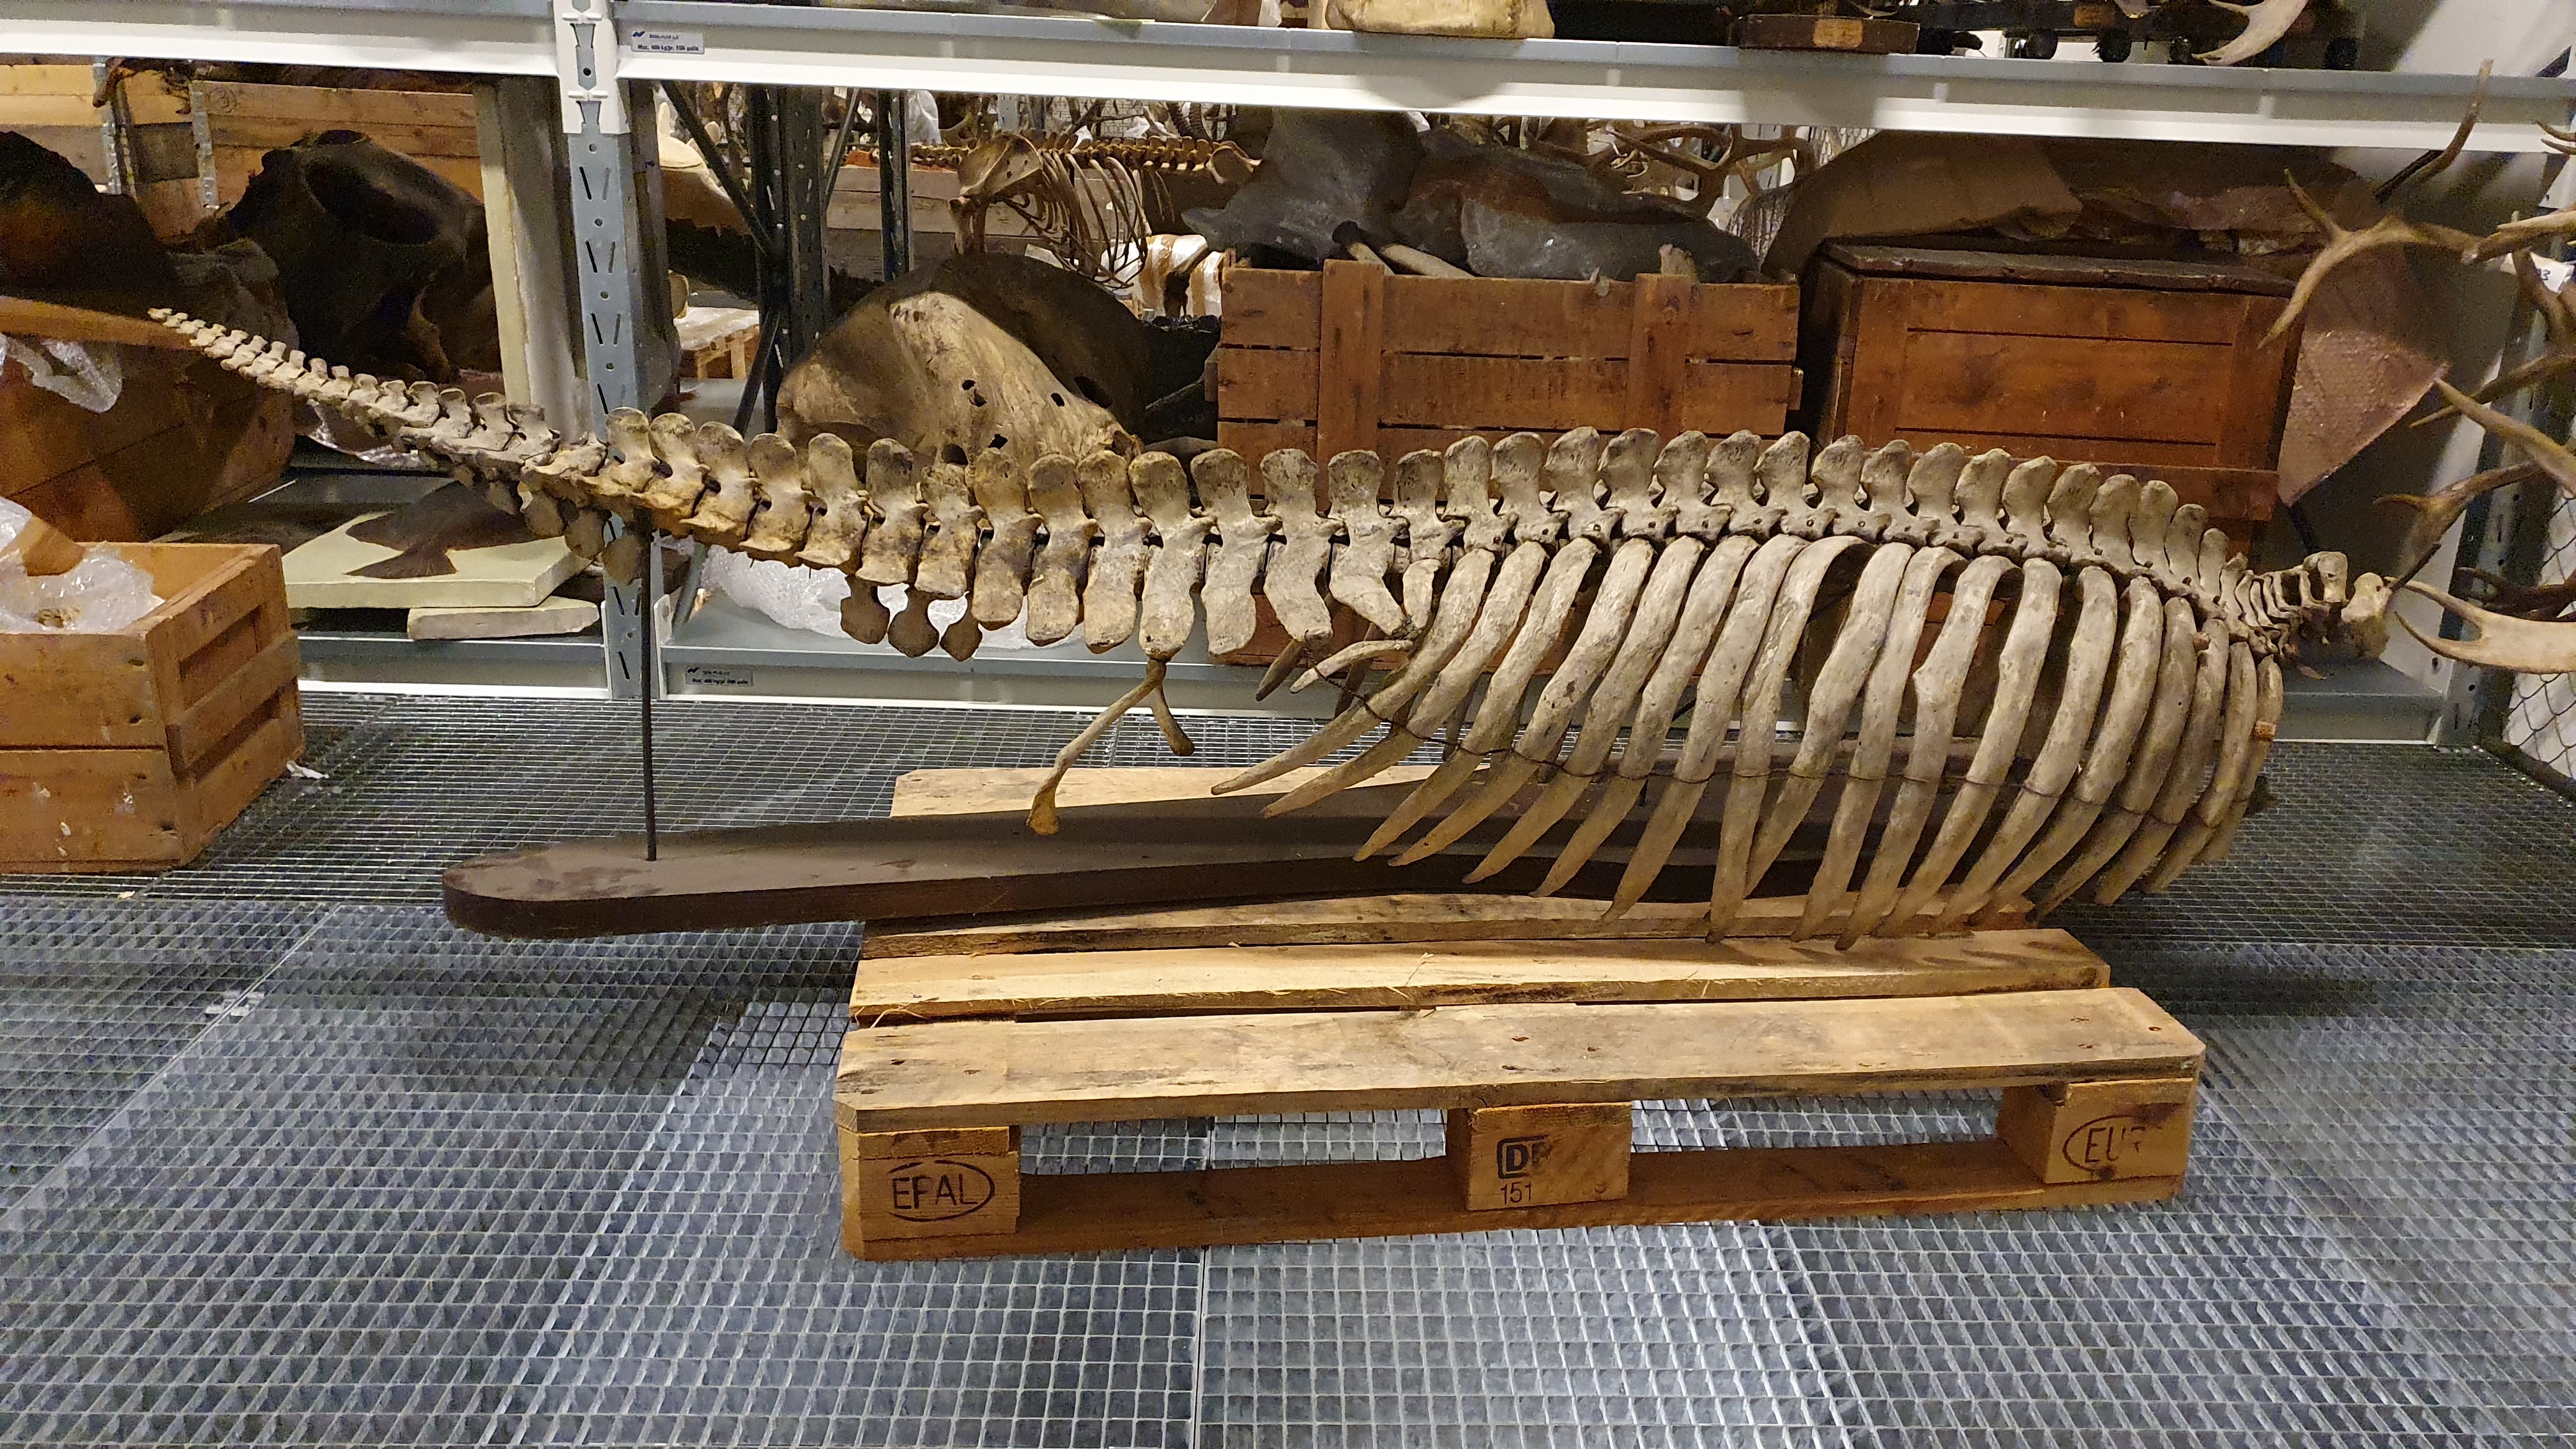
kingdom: Animalia
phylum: Chordata
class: Mammalia
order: Sirenia
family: Dugongidae
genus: Dugong
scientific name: Dugong dugon
